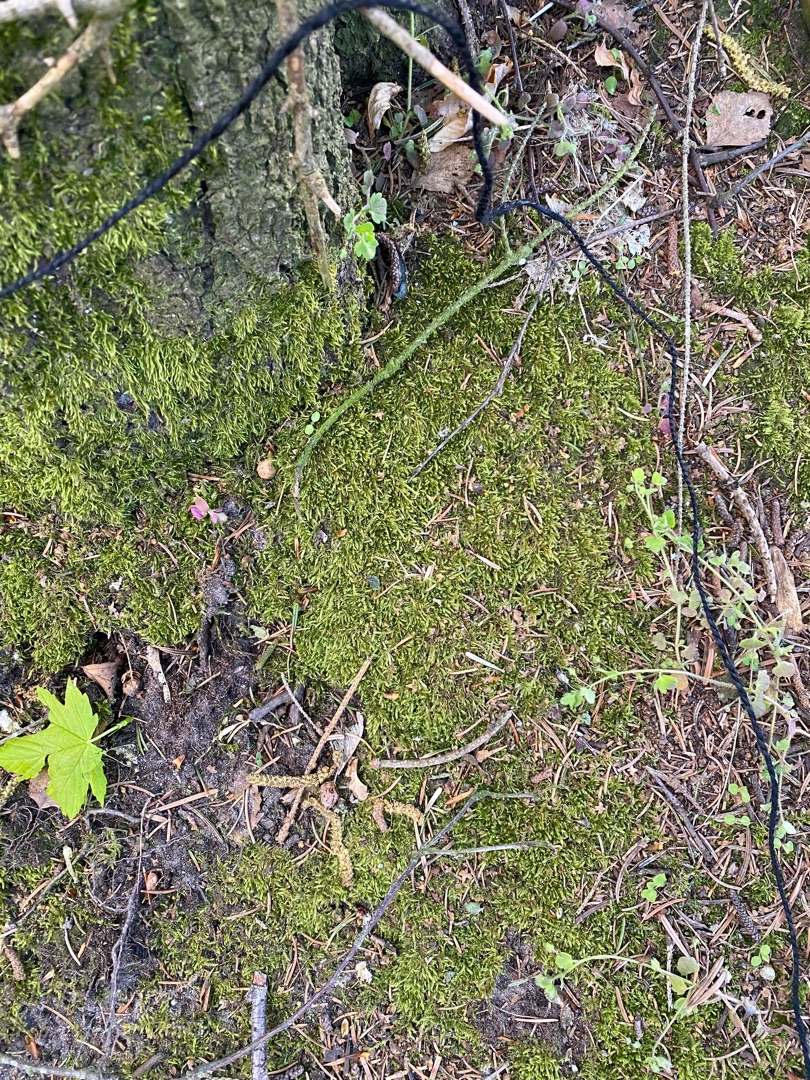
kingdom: Plantae
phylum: Bryophyta
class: Bryopsida
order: Hypnales
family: Hypnaceae
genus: Hypnum
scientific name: Hypnum cupressiforme
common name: Almindelig cypresmos
